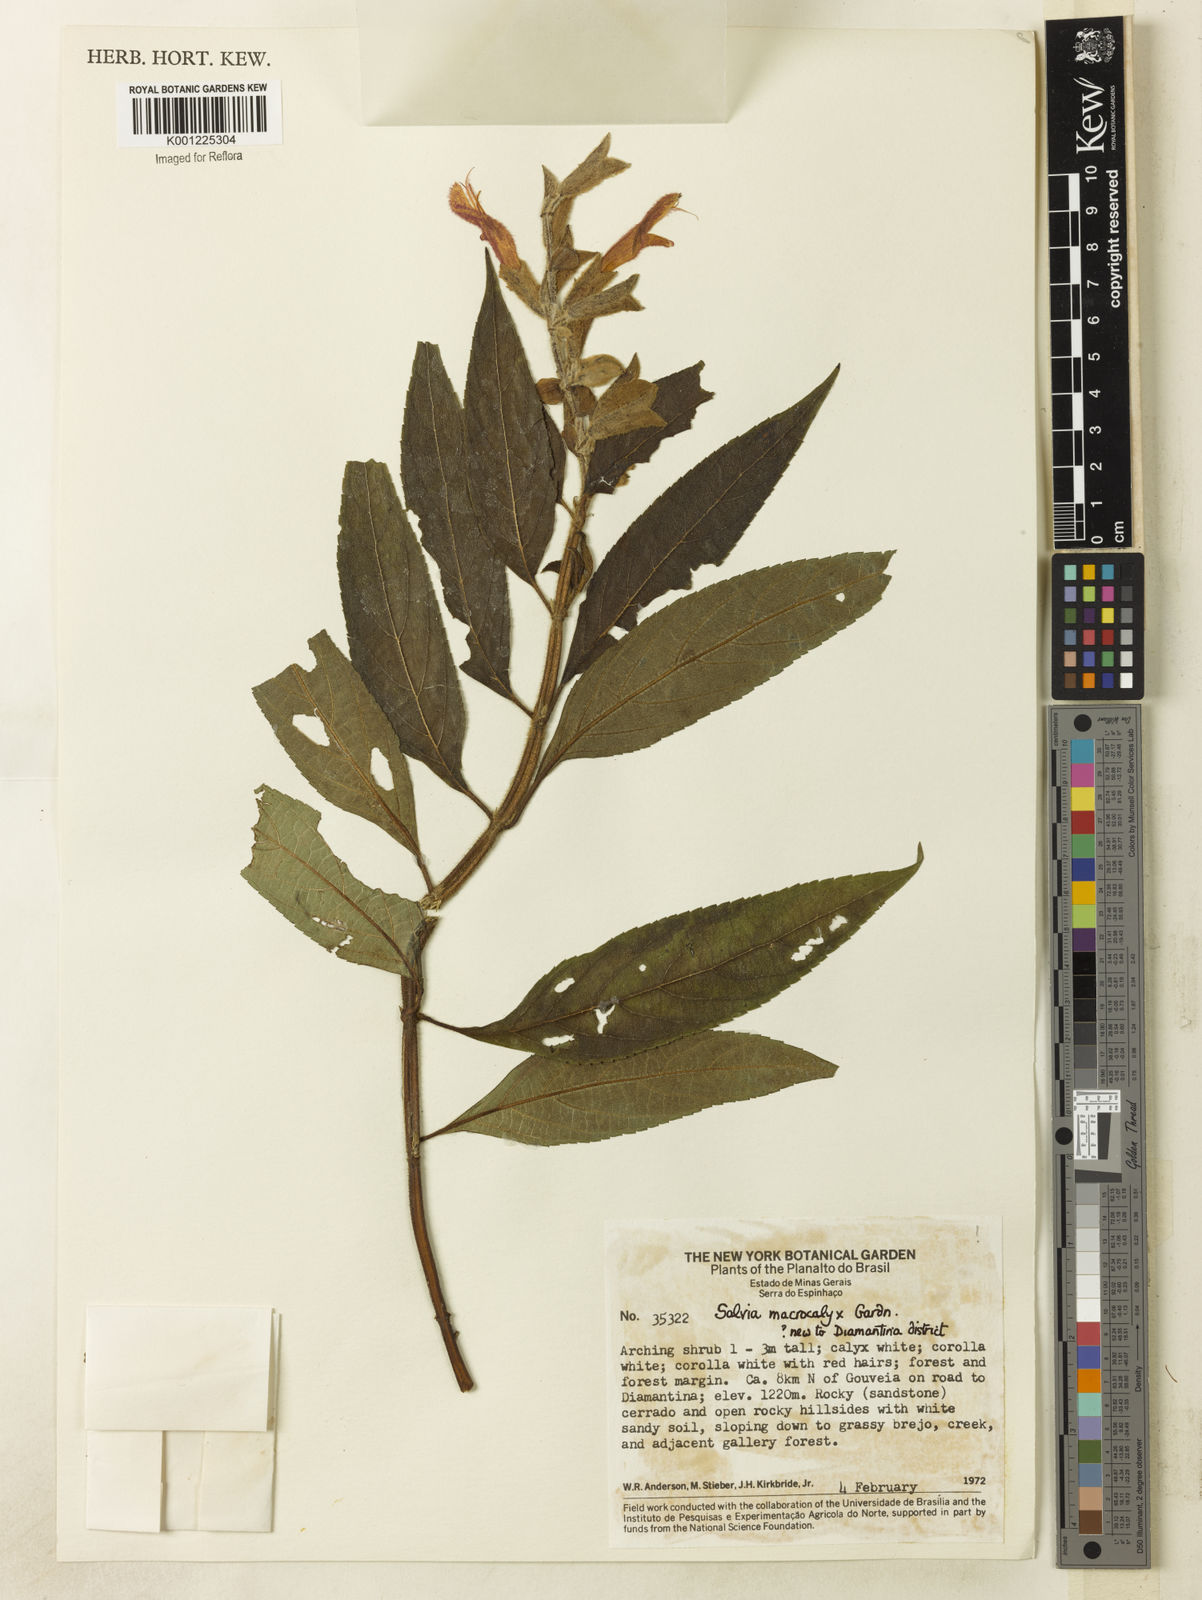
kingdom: Plantae
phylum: Tracheophyta
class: Magnoliopsida
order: Lamiales
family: Lamiaceae
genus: Salvia
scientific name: Salvia macrocalyx
